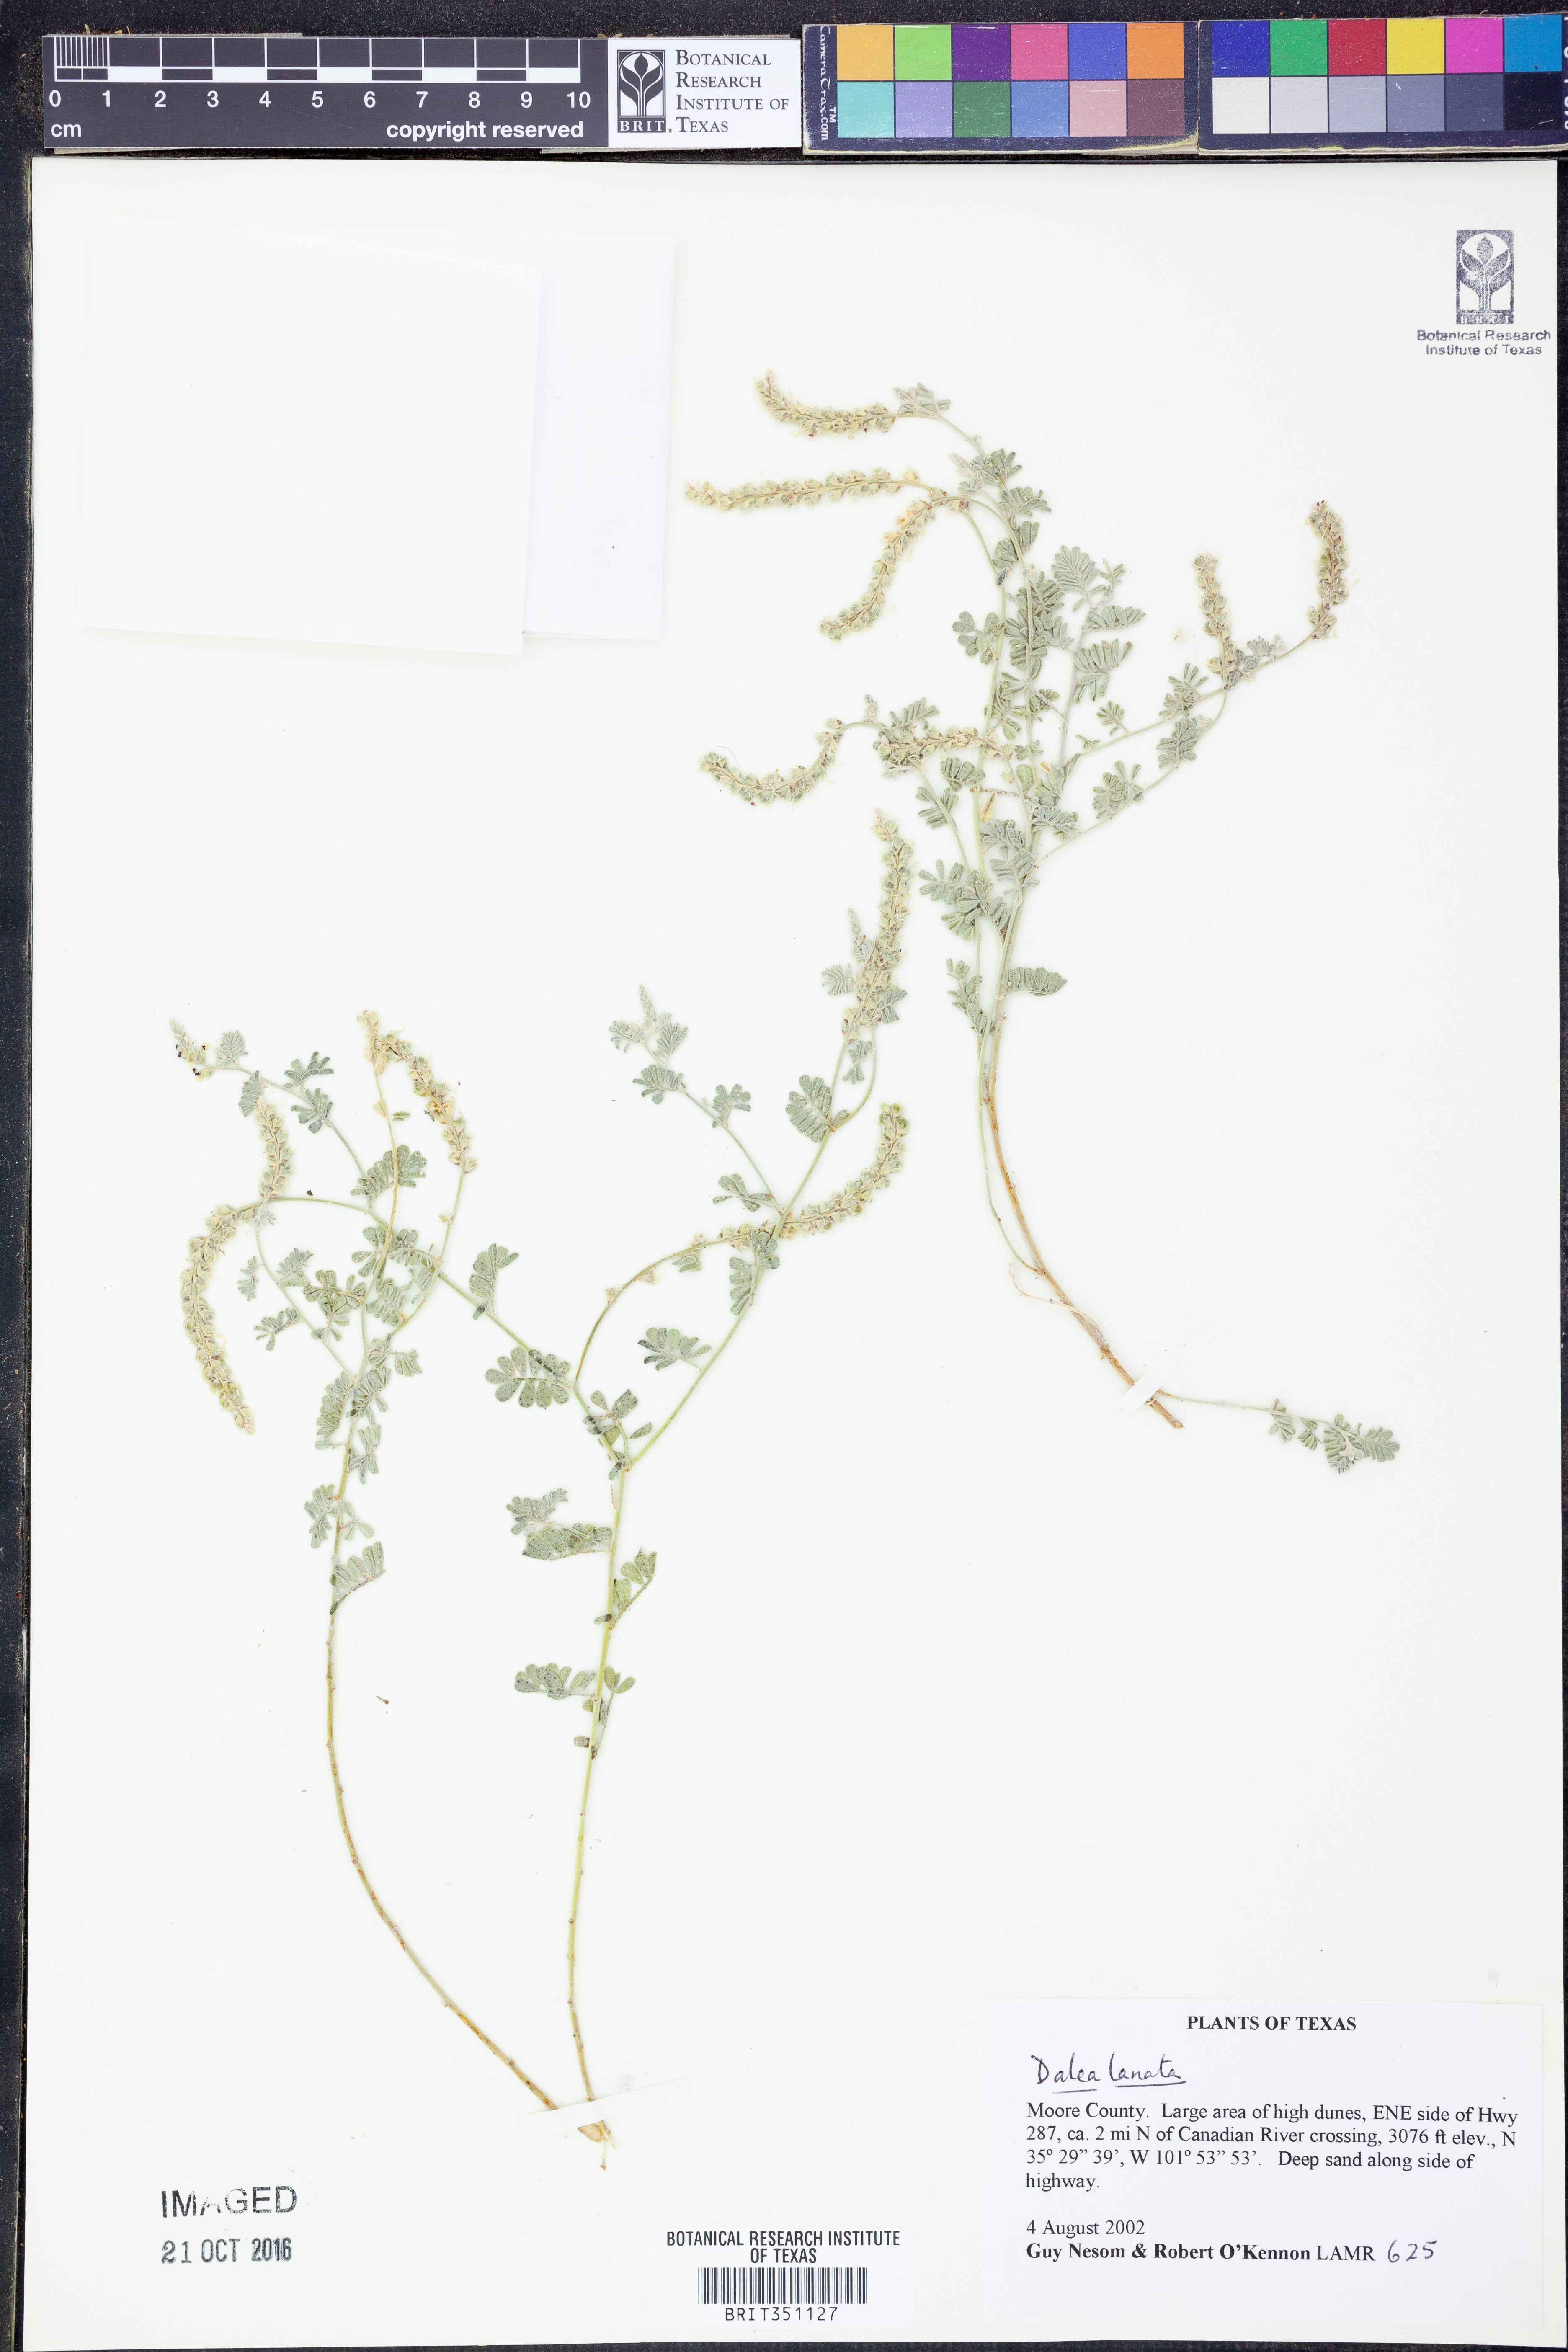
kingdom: Plantae
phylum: Tracheophyta
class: Magnoliopsida
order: Fabales
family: Fabaceae
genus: Dalea
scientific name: Dalea lanata
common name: Woolly dalea
